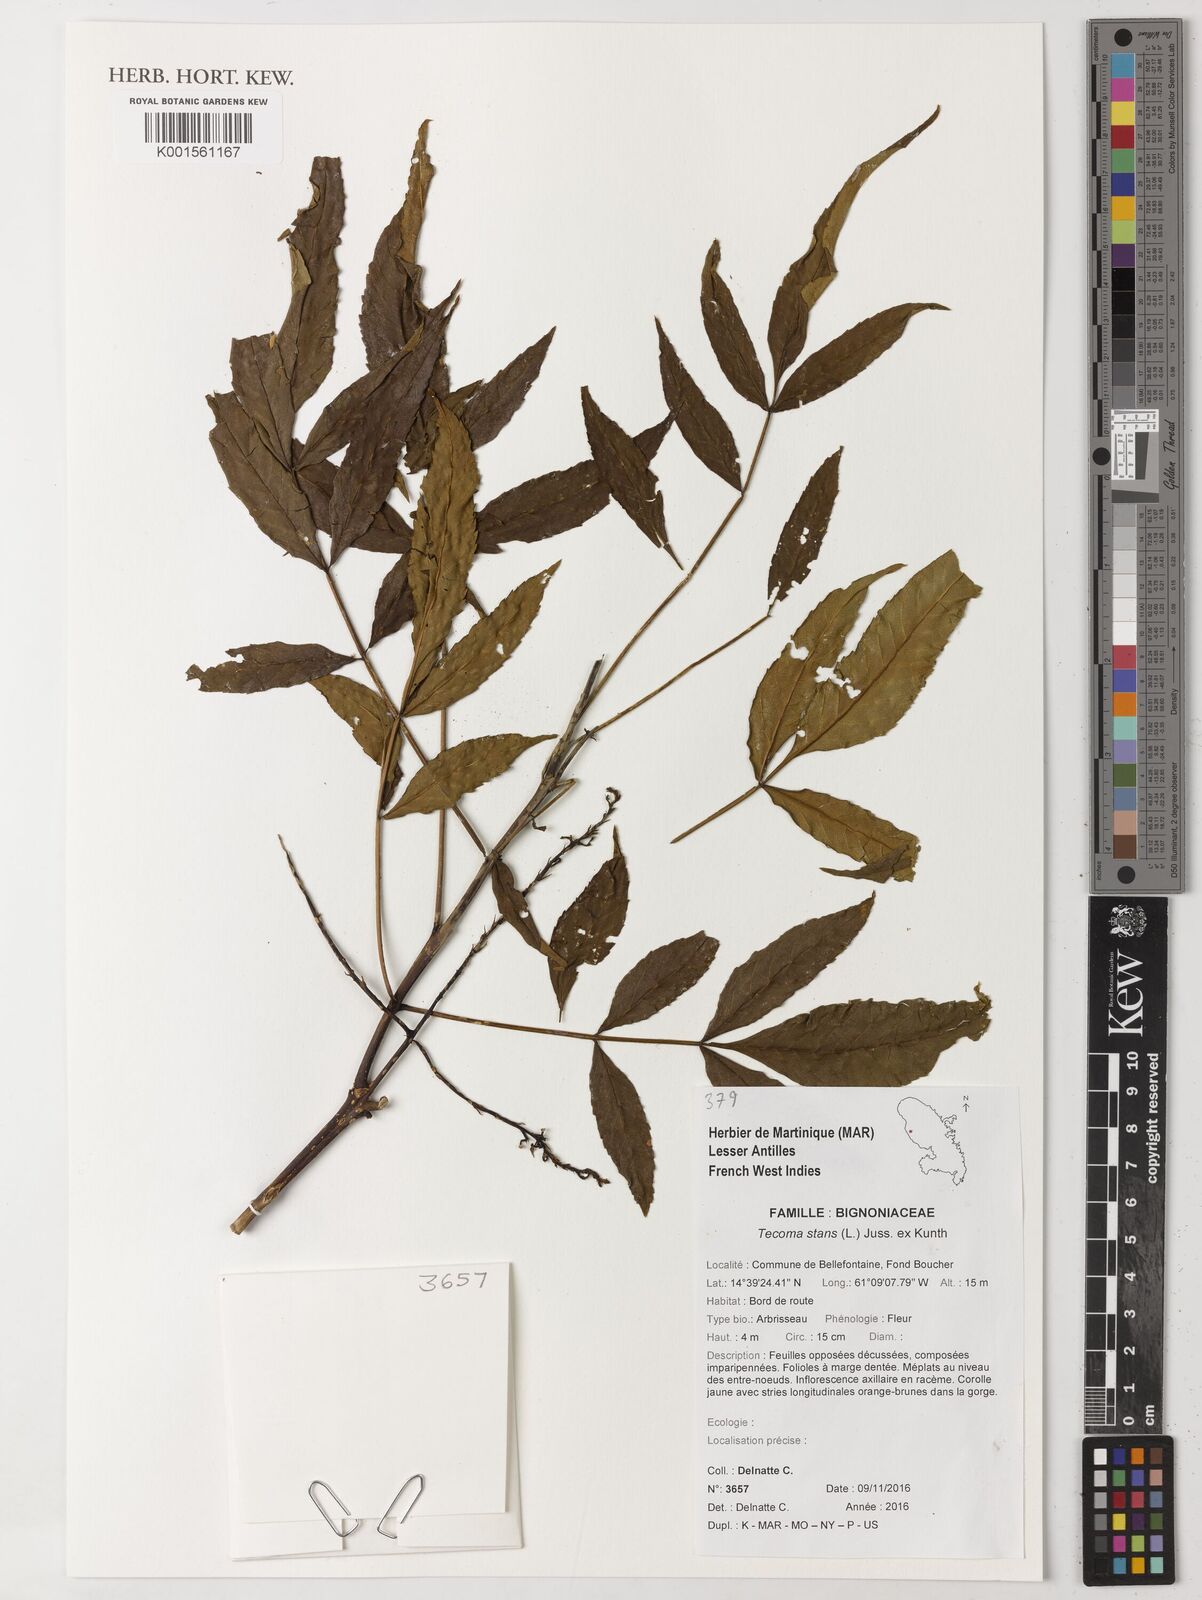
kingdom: Plantae
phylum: Tracheophyta
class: Magnoliopsida
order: Lamiales
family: Bignoniaceae
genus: Tecoma
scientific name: Tecoma stans
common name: Yellow trumpetbush
